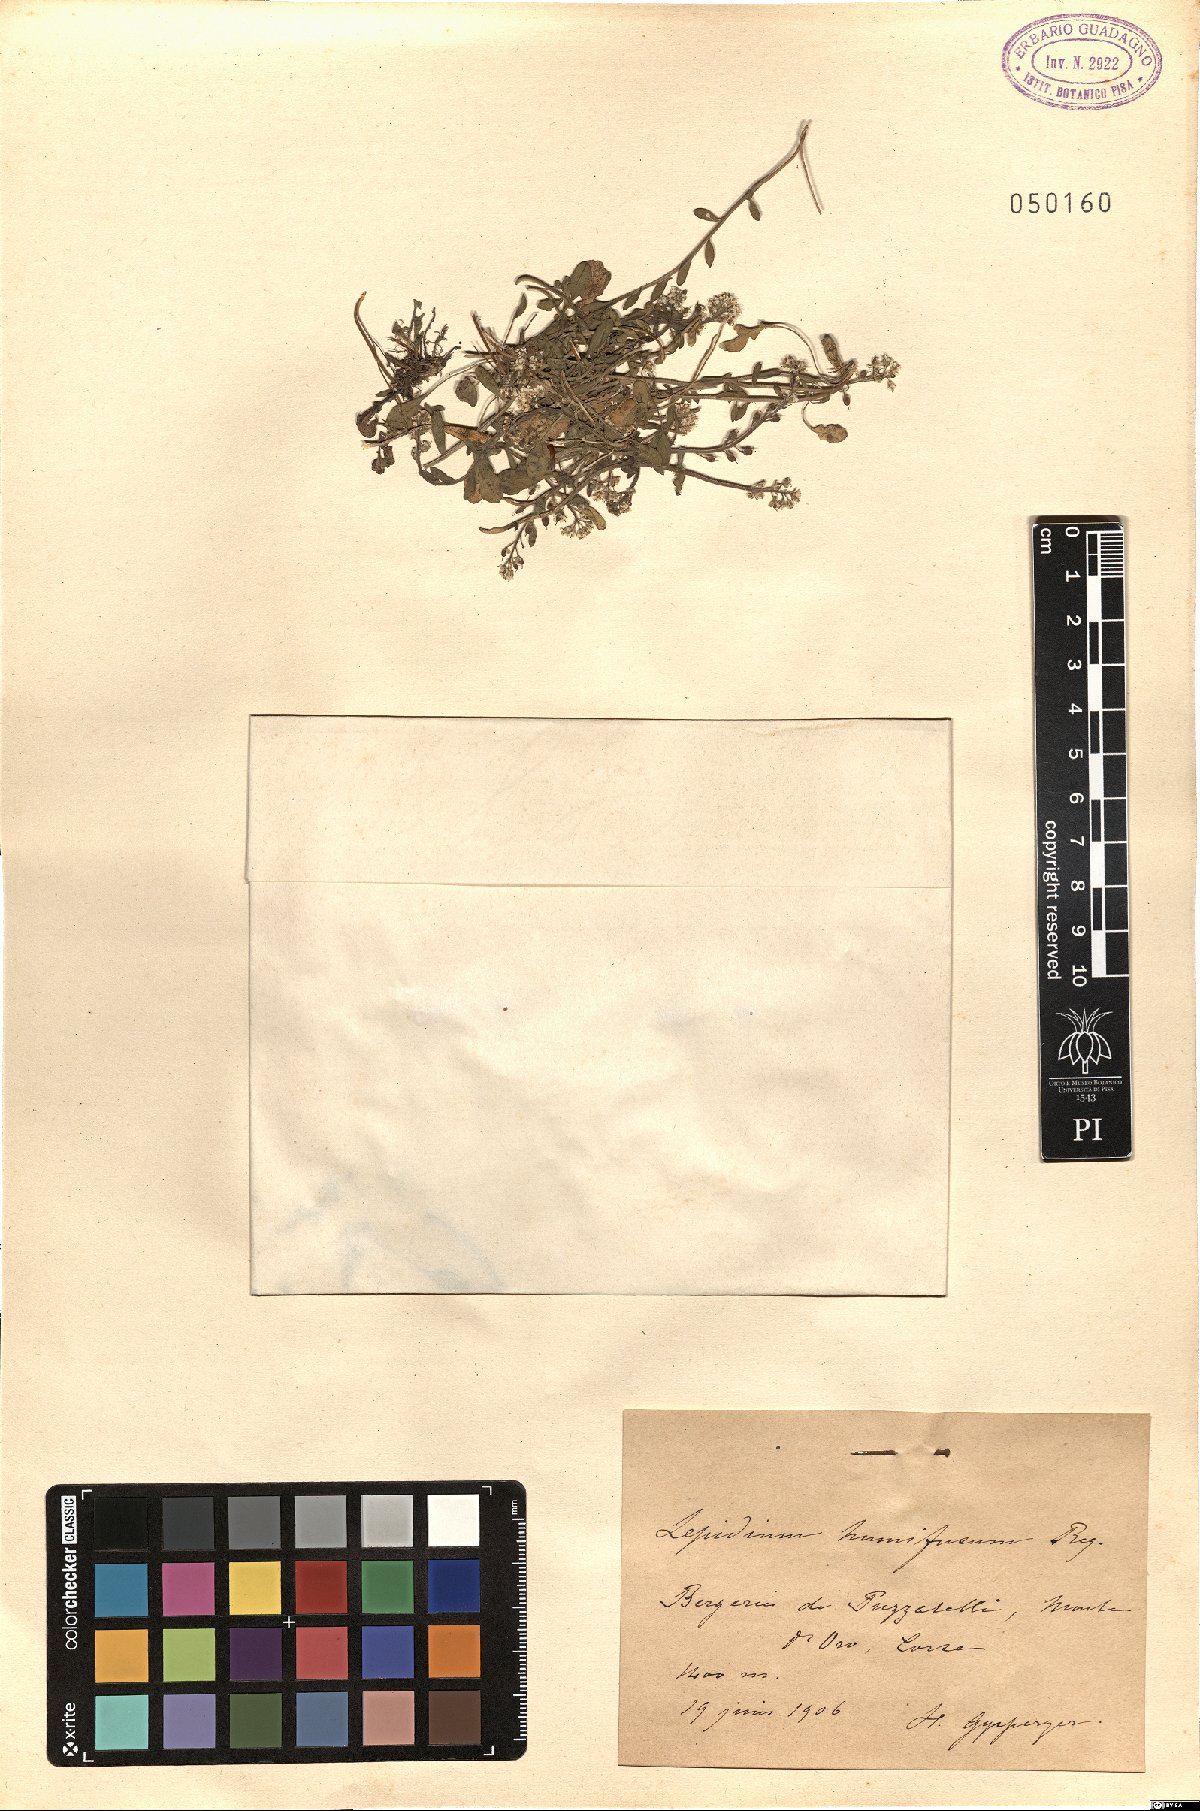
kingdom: Plantae
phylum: Tracheophyta
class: Magnoliopsida
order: Brassicales
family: Brassicaceae
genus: Lepidium
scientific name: Lepidium hirtum
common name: Mediterranean pepperweed
